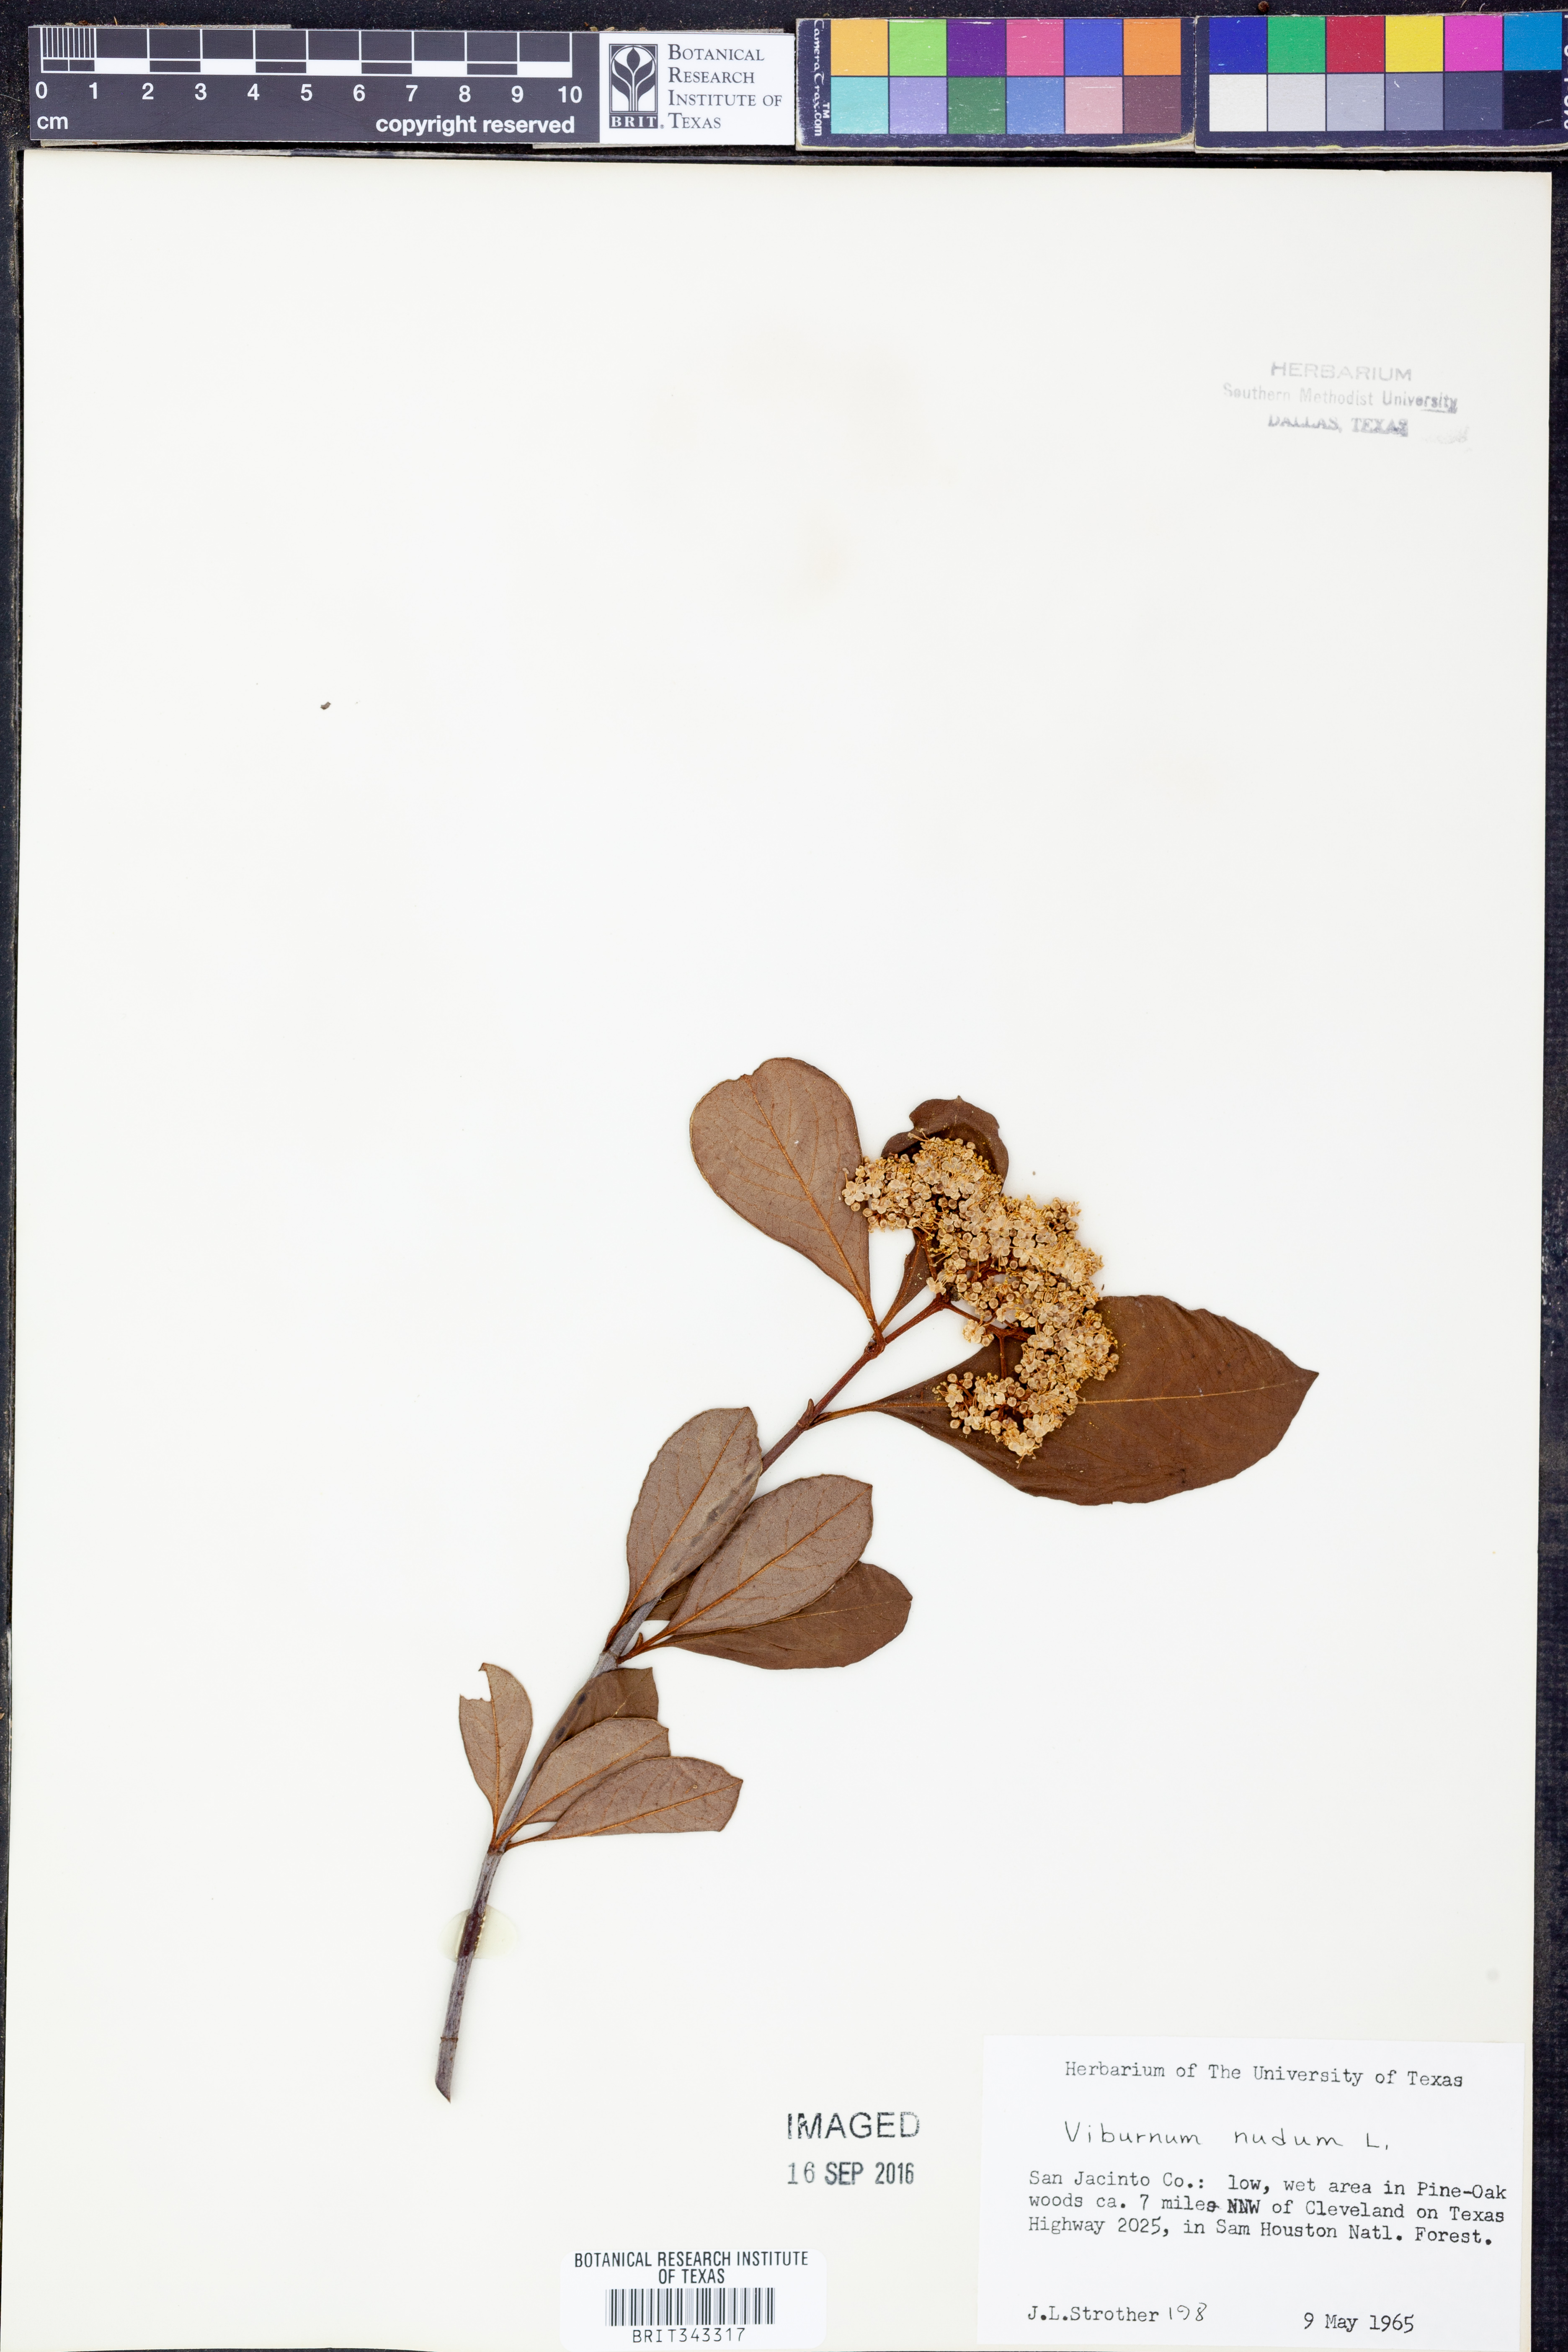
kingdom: Plantae
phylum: Tracheophyta
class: Magnoliopsida
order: Dipsacales
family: Viburnaceae
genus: Viburnum
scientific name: Viburnum nudum
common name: Possum haw
